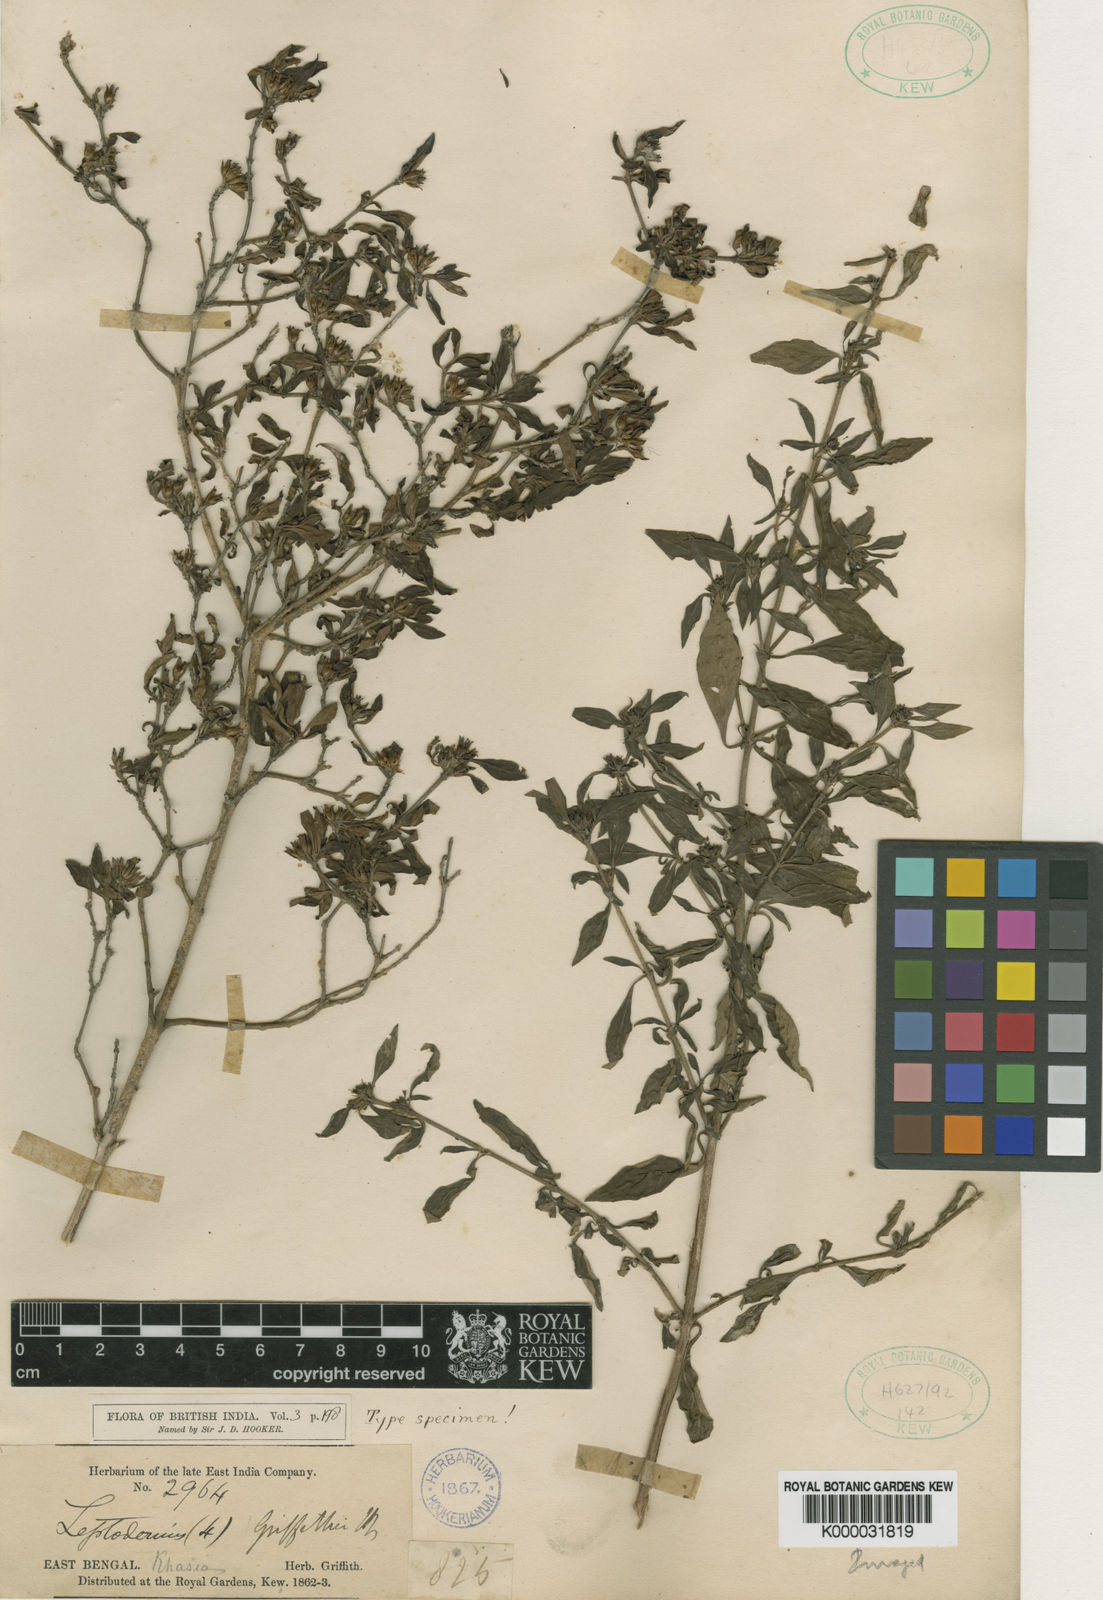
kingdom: Plantae
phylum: Tracheophyta
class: Magnoliopsida
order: Gentianales
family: Rubiaceae
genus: Leptodermis
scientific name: Leptodermis griffithii
